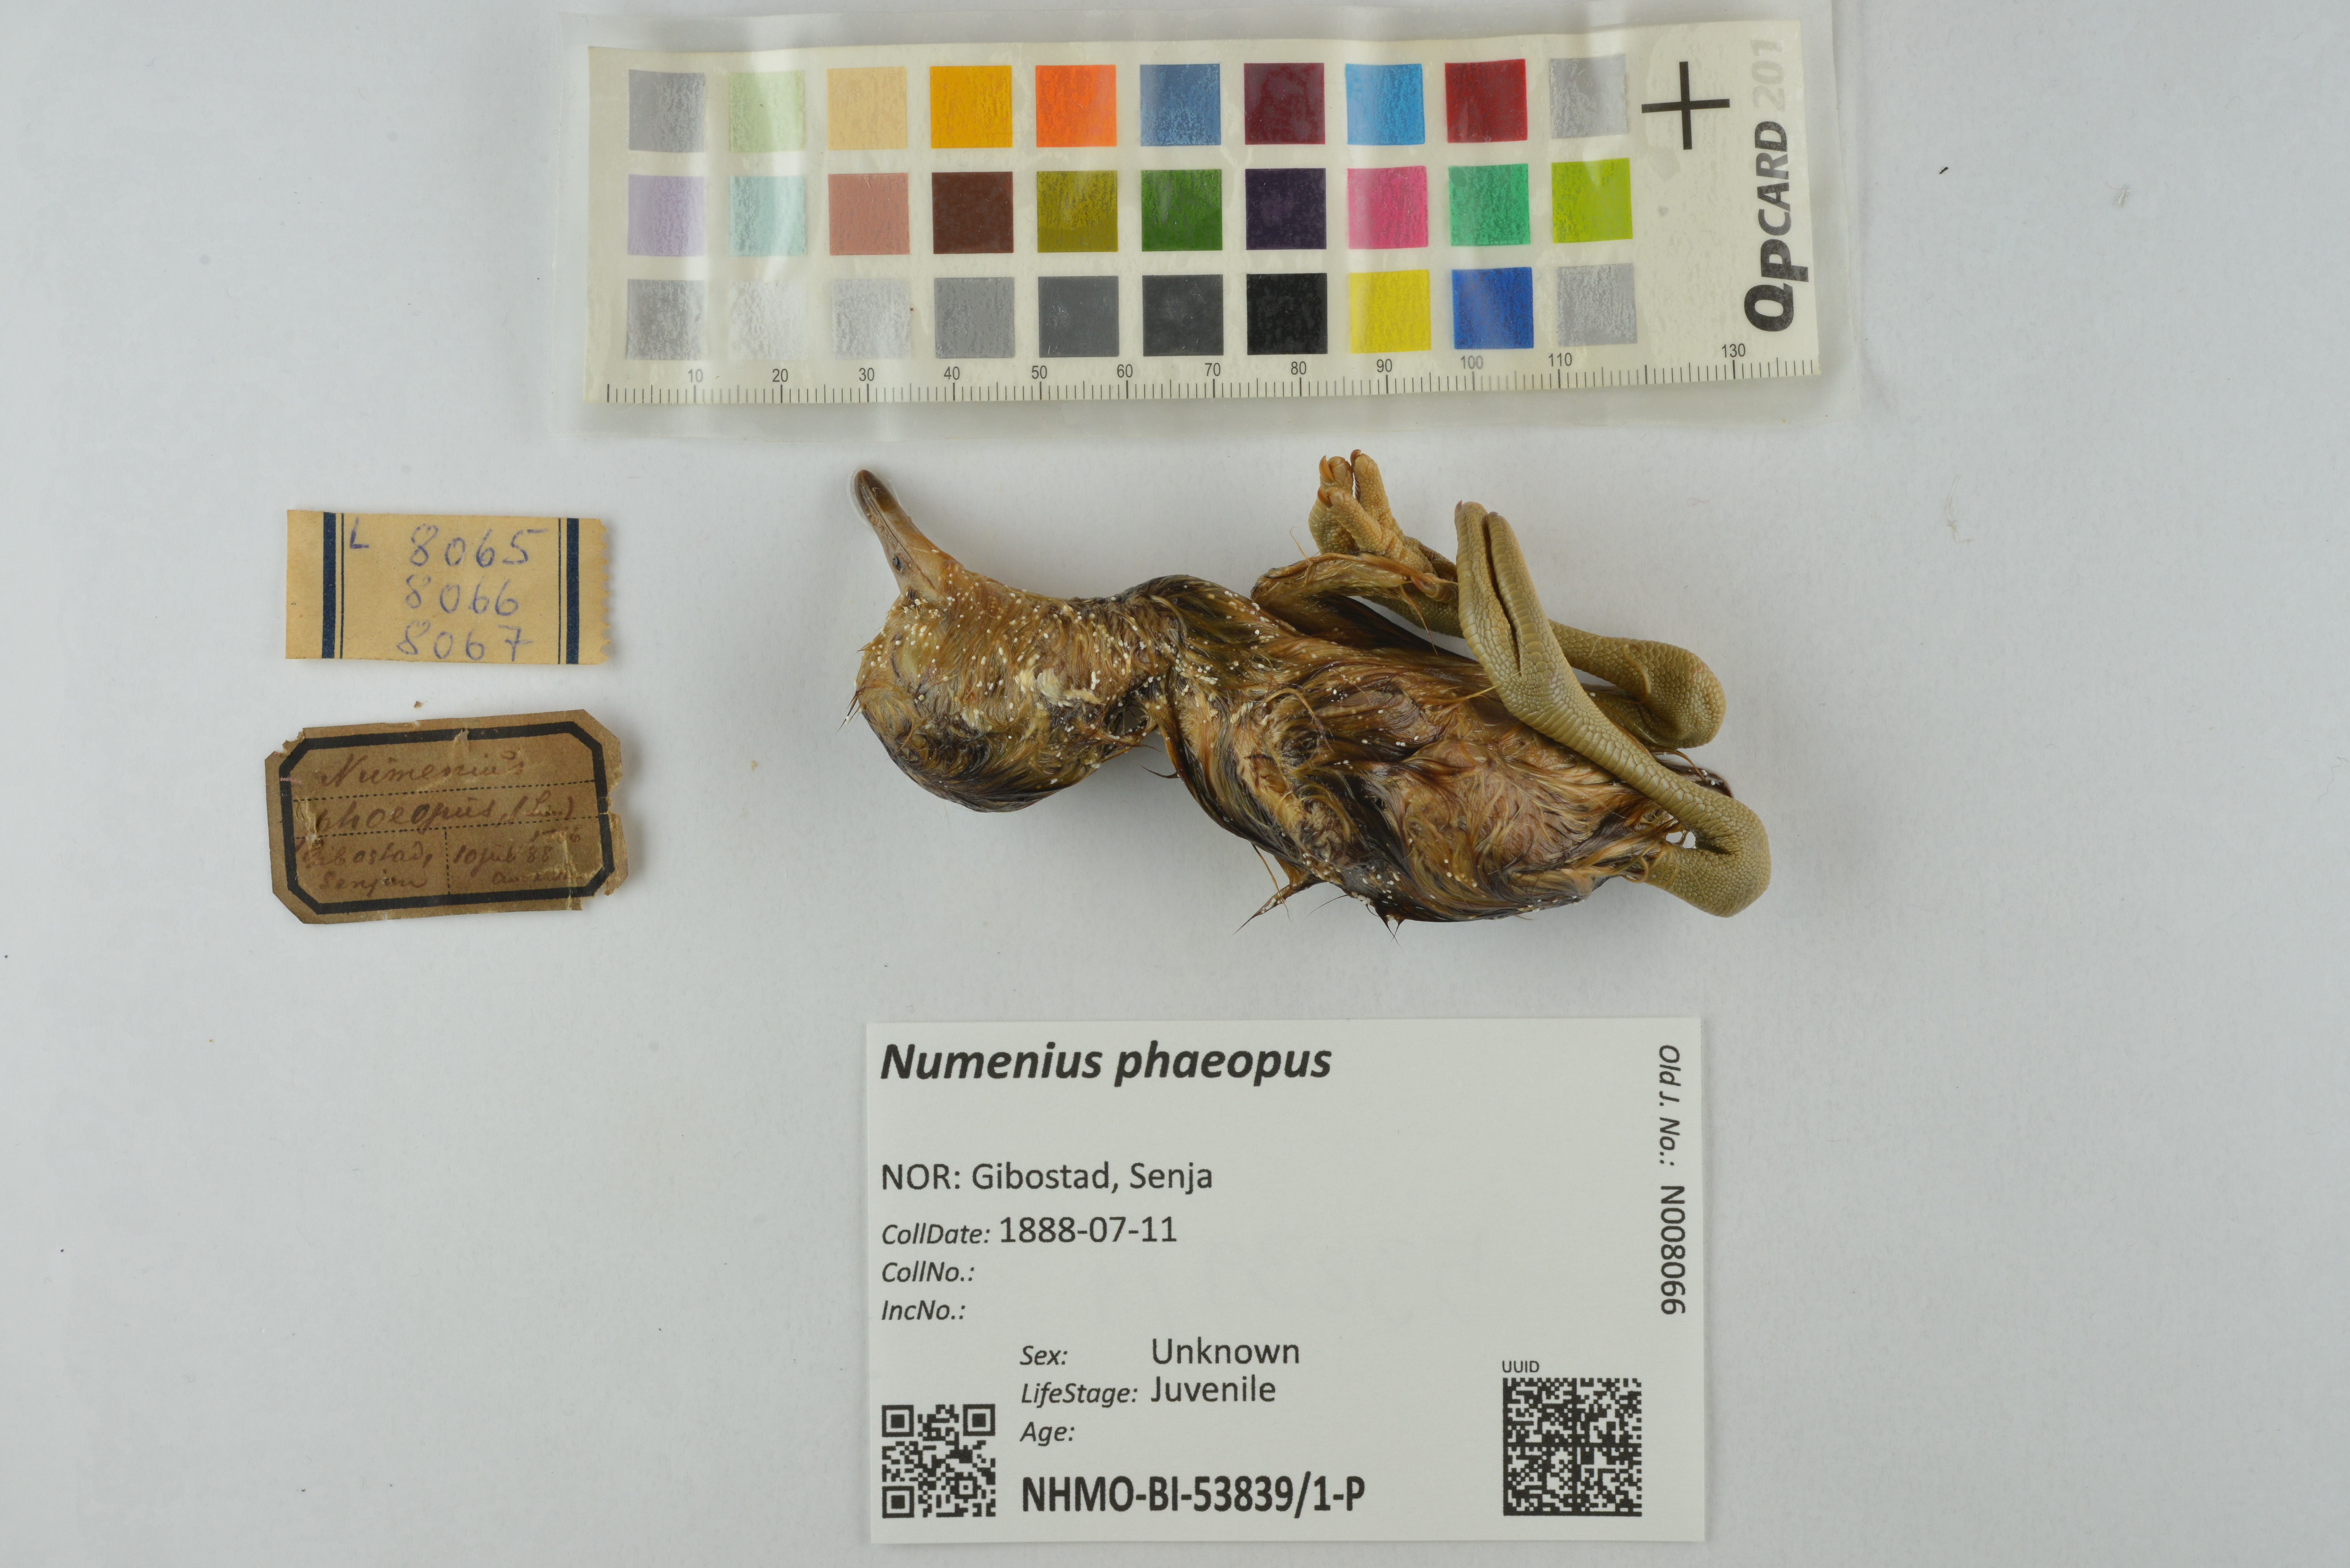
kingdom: Animalia
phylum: Chordata
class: Aves
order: Charadriiformes
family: Scolopacidae
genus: Numenius
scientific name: Numenius phaeopus
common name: Whimbrel
